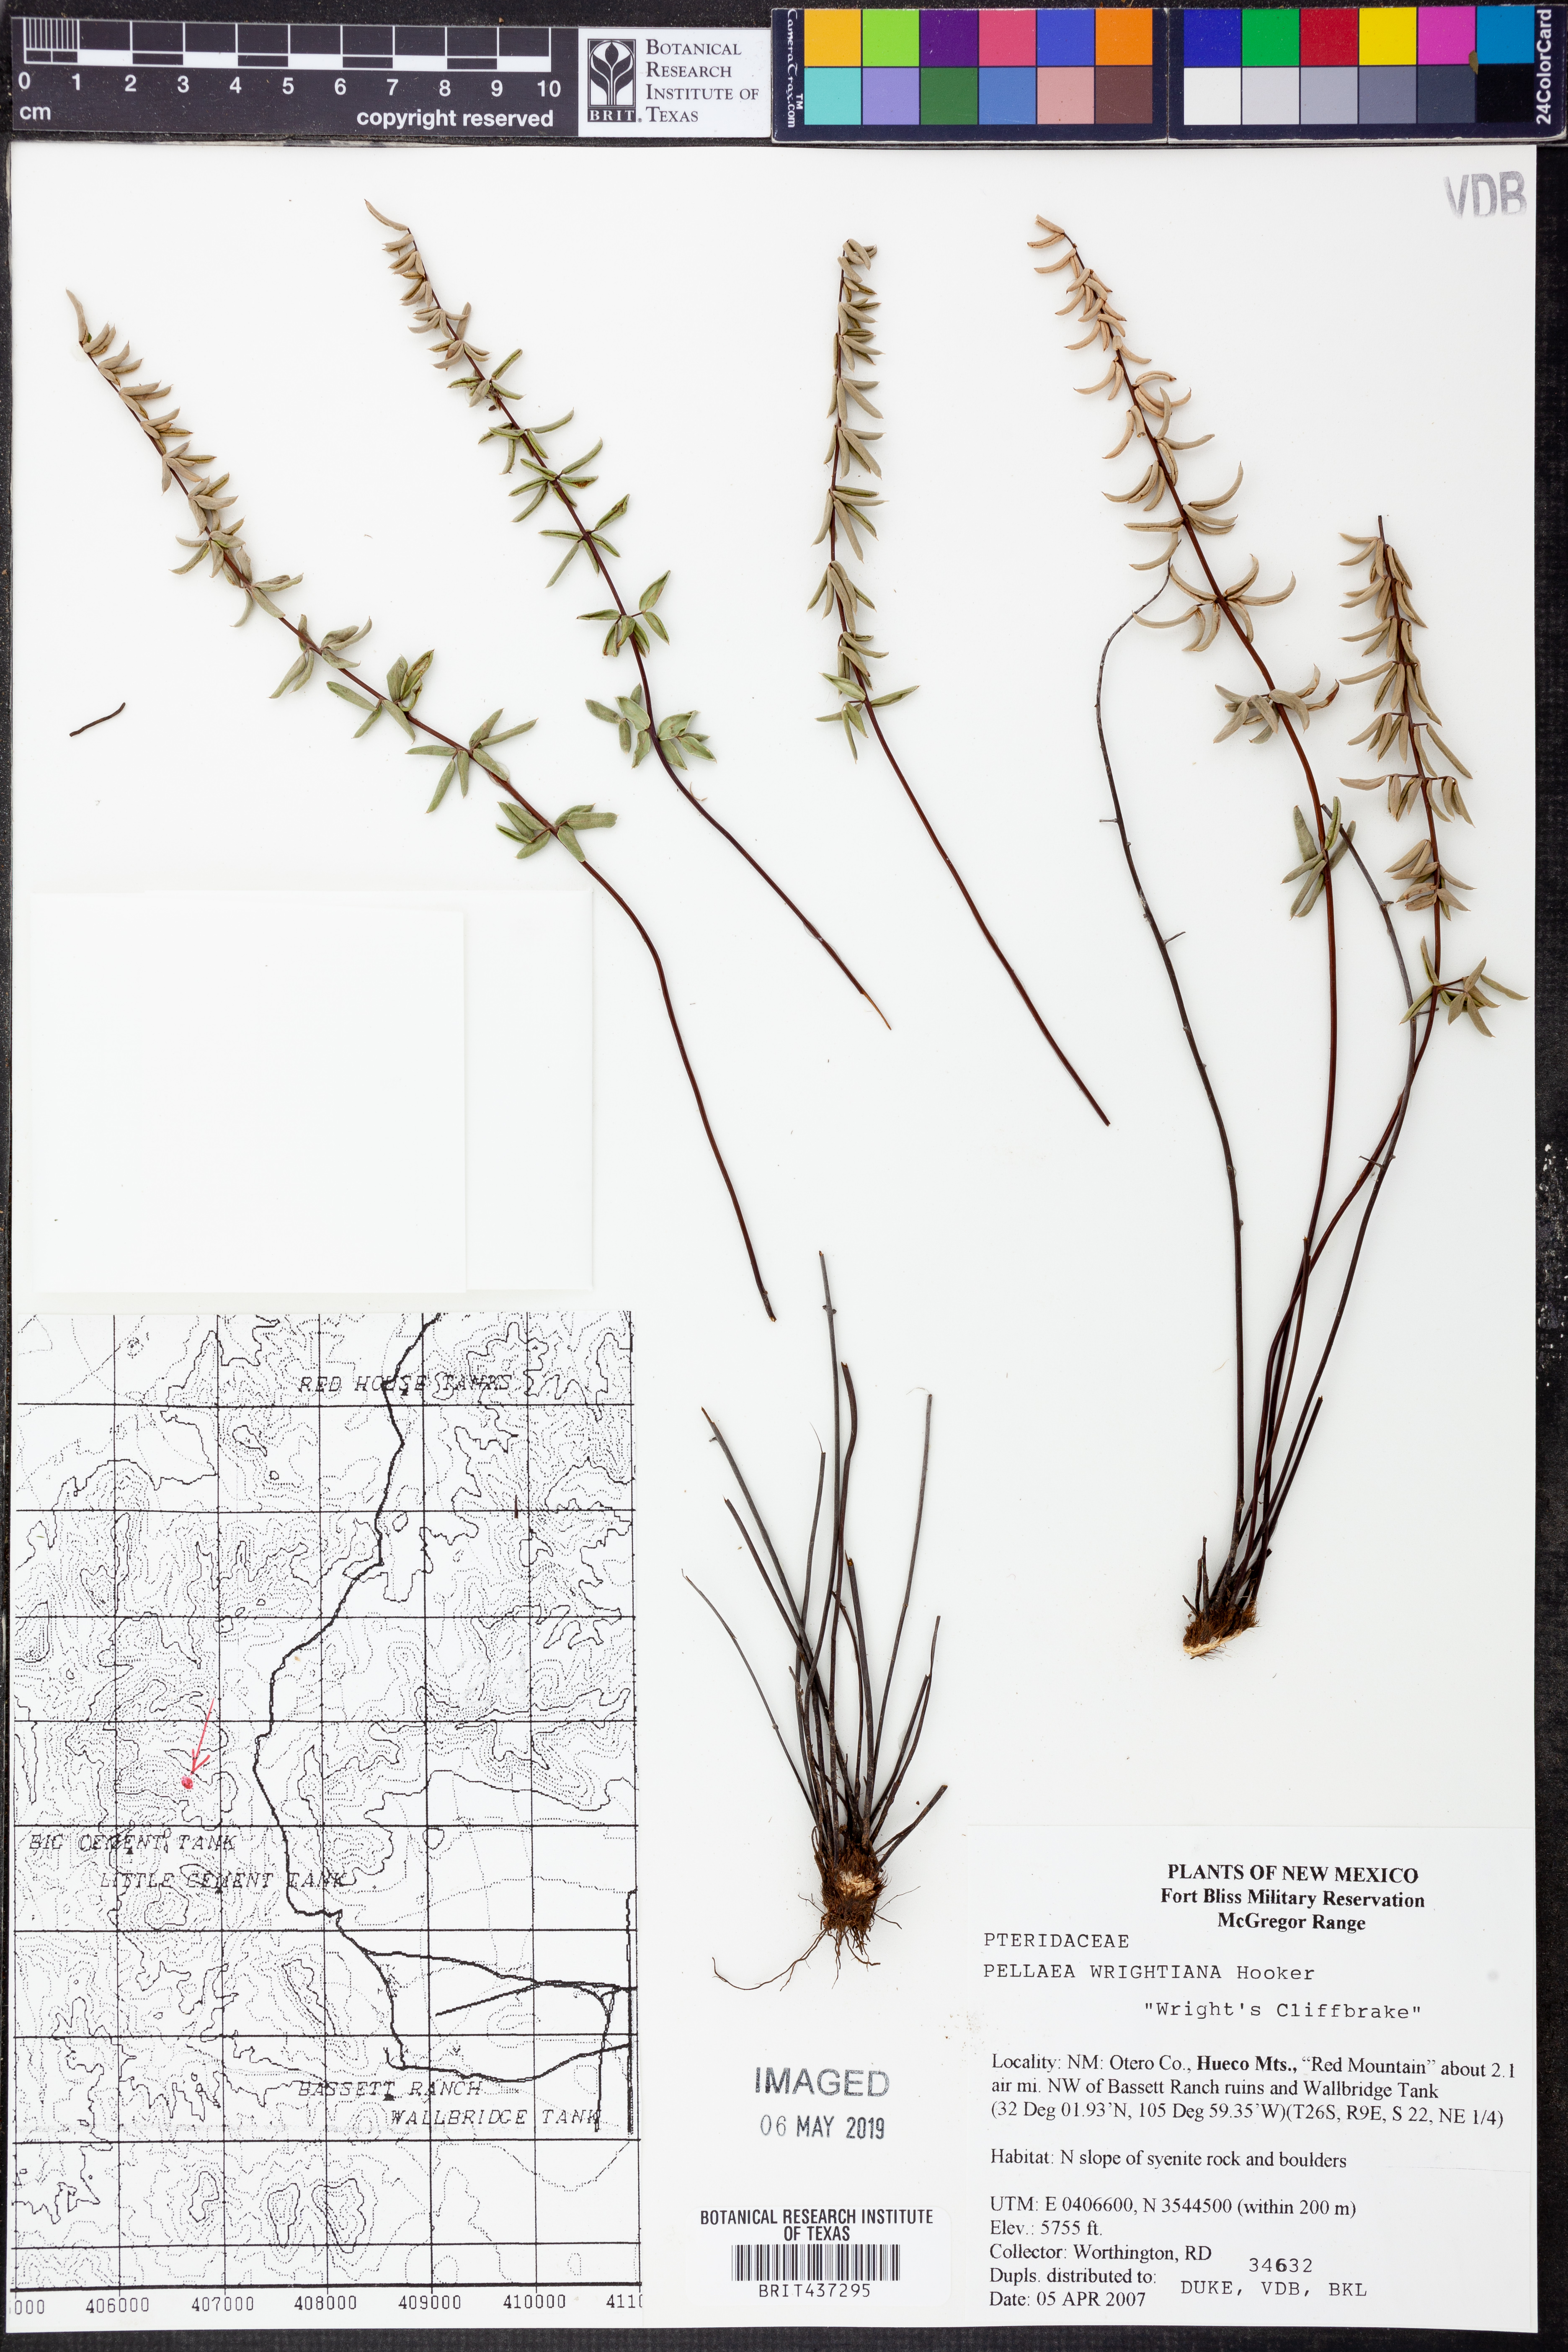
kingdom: Plantae
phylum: Tracheophyta
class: Polypodiopsida
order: Polypodiales
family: Pteridaceae
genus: Pellaea
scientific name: Pellaea wrightiana
